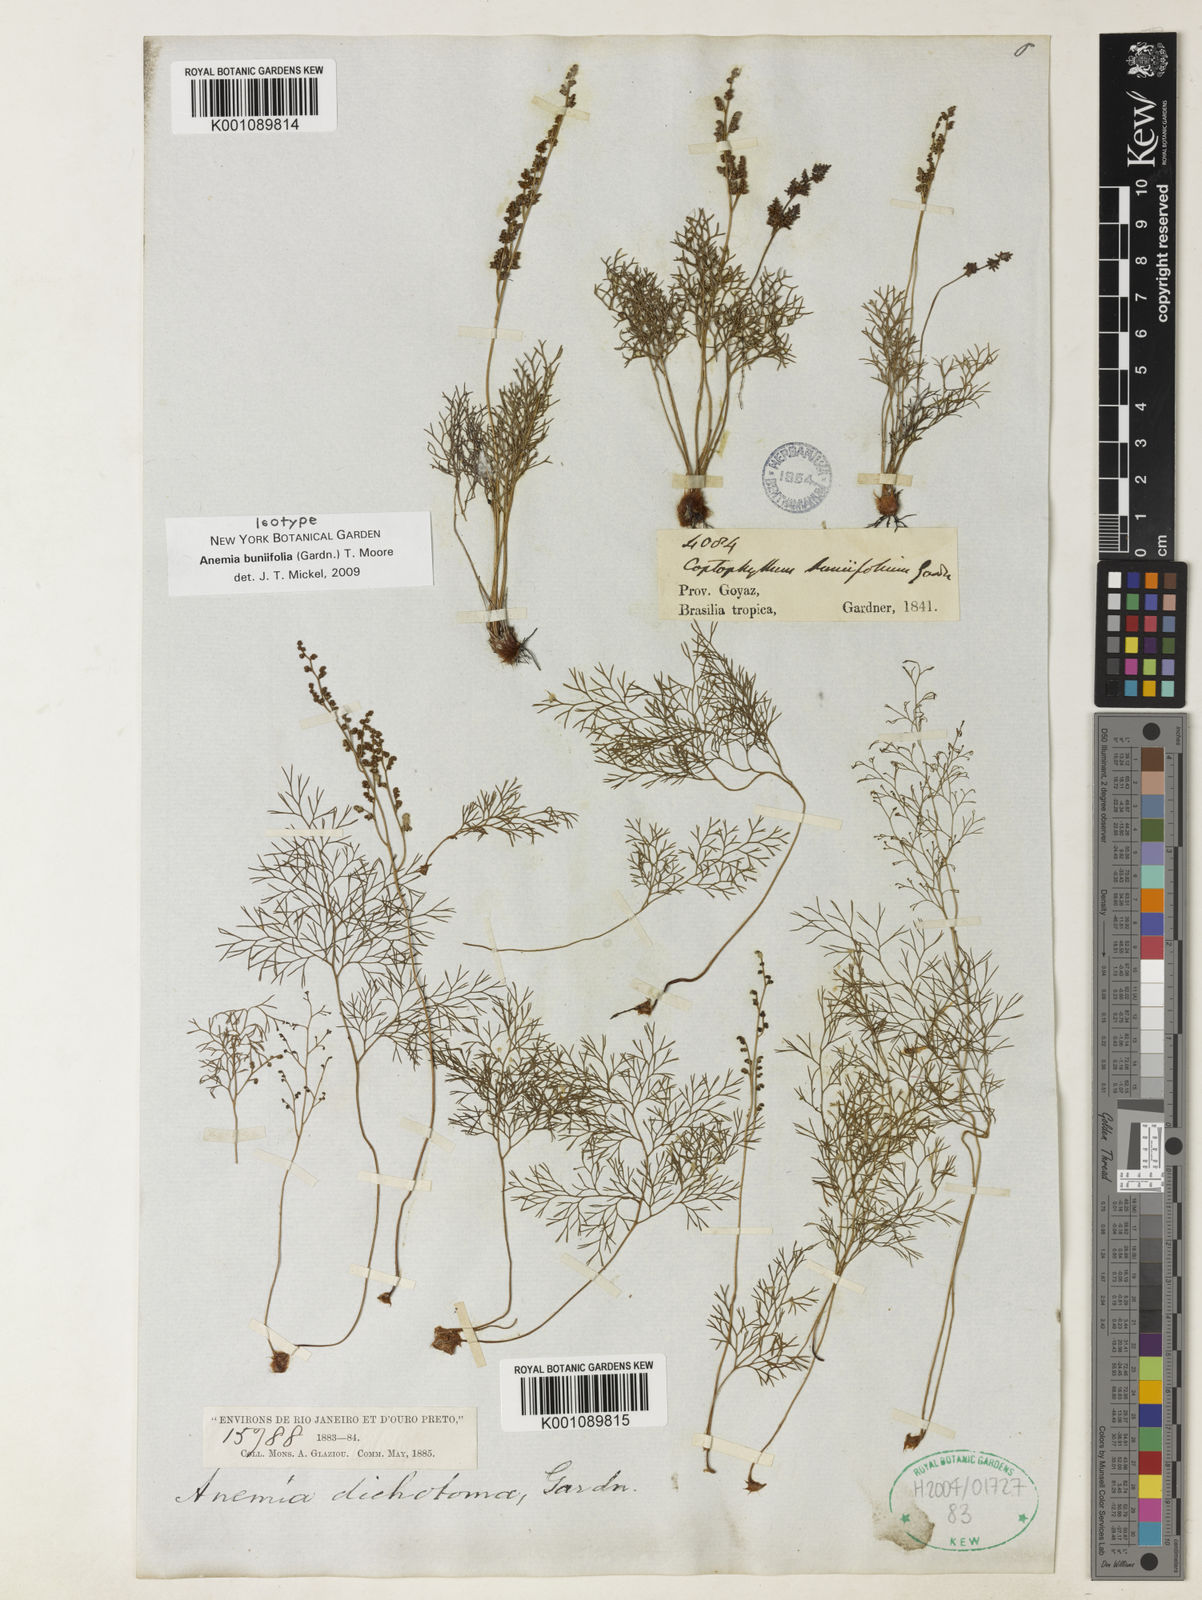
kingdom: Plantae
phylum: Tracheophyta
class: Polypodiopsida
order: Schizaeales
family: Anemiaceae
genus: Anemia
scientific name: Anemia buniifolia
